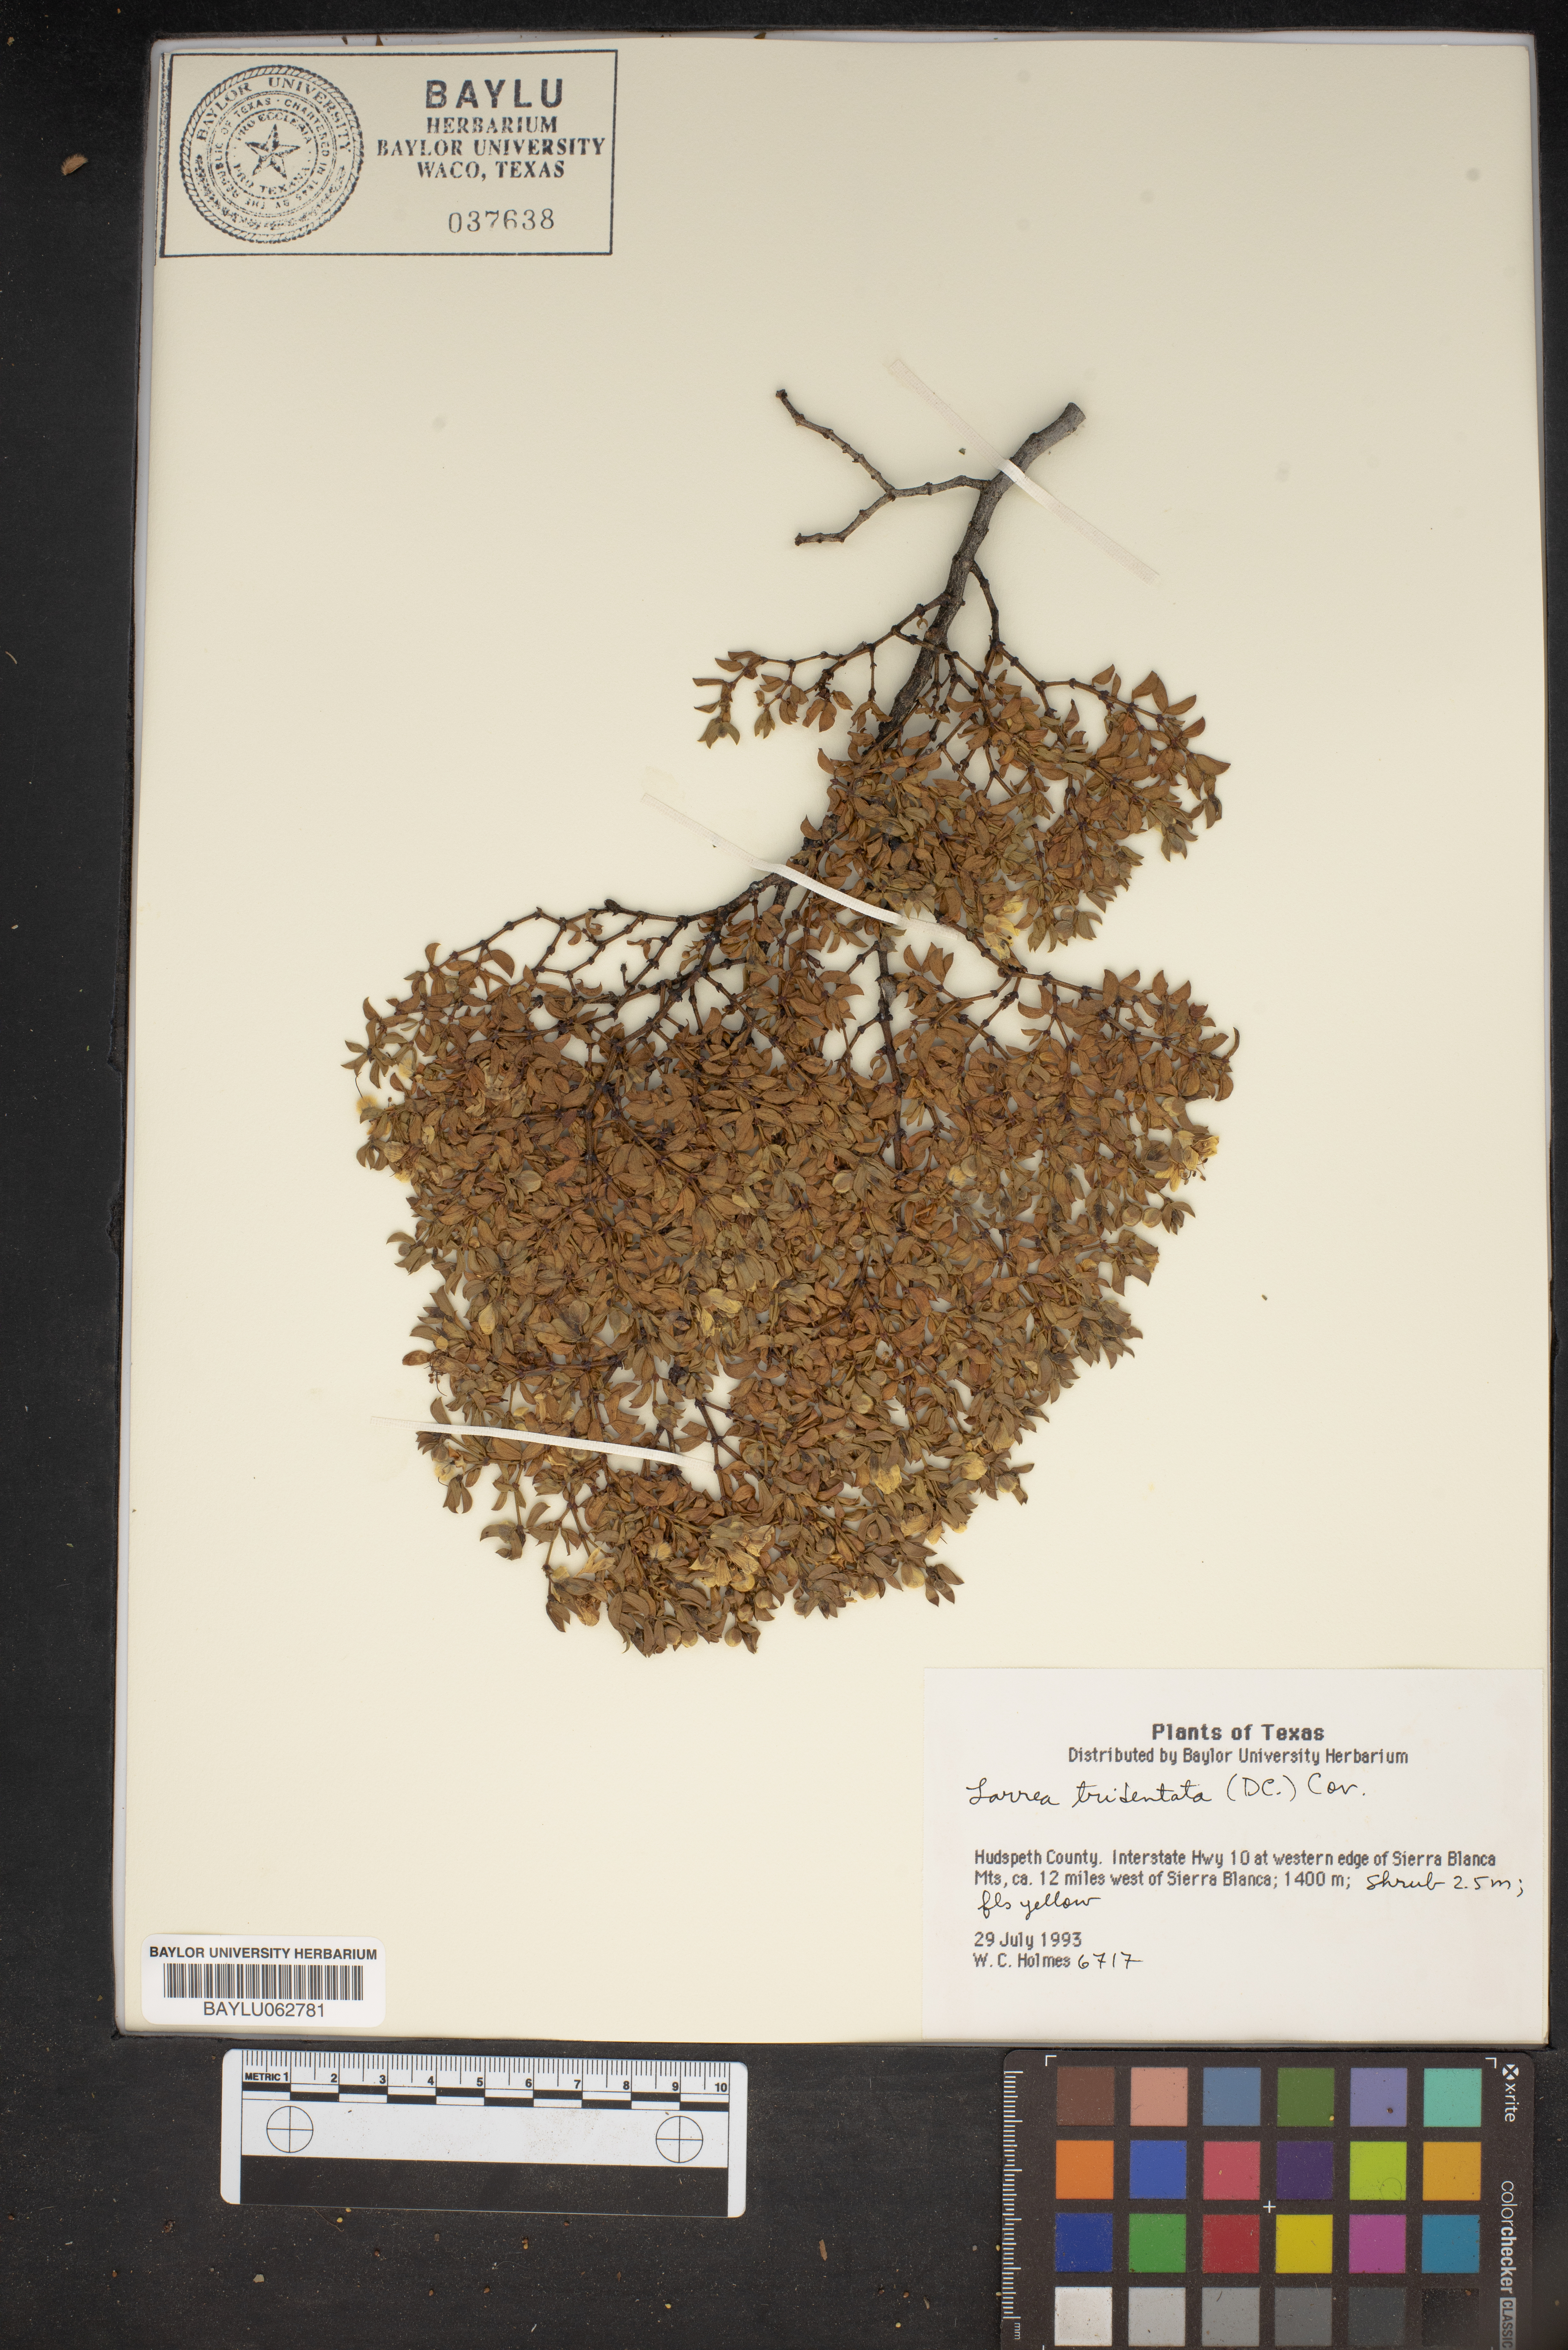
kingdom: Plantae
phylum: Tracheophyta
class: Magnoliopsida
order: Zygophyllales
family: Zygophyllaceae
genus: Larrea
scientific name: Larrea tridentata
